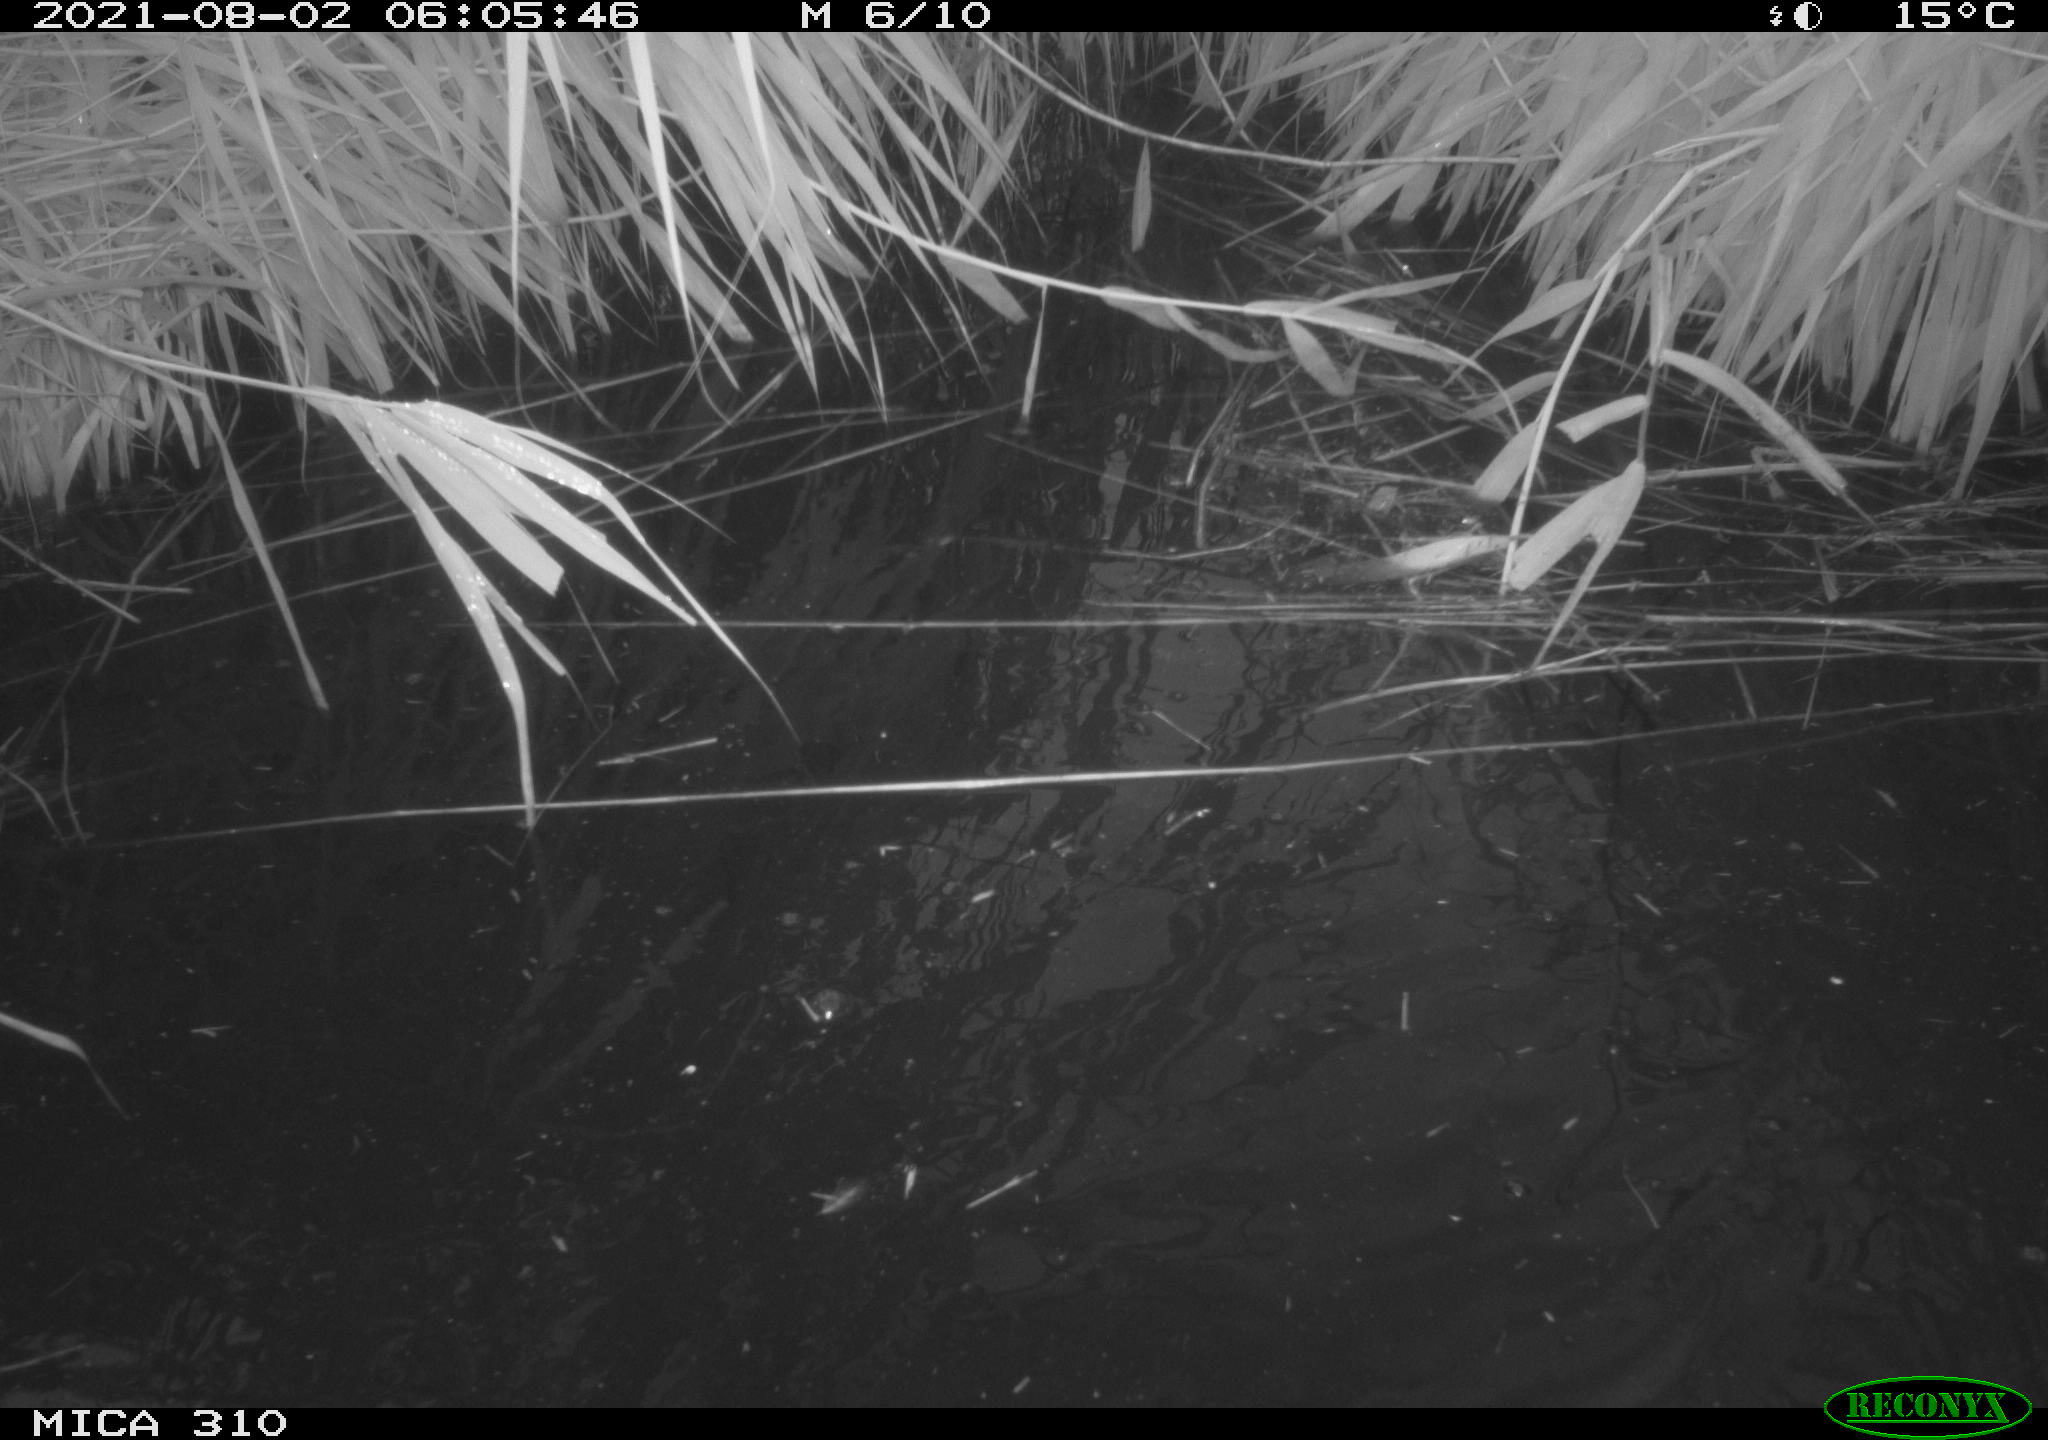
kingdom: Animalia
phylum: Chordata
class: Aves
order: Anseriformes
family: Anatidae
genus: Anas
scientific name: Anas platyrhynchos
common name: Mallard
